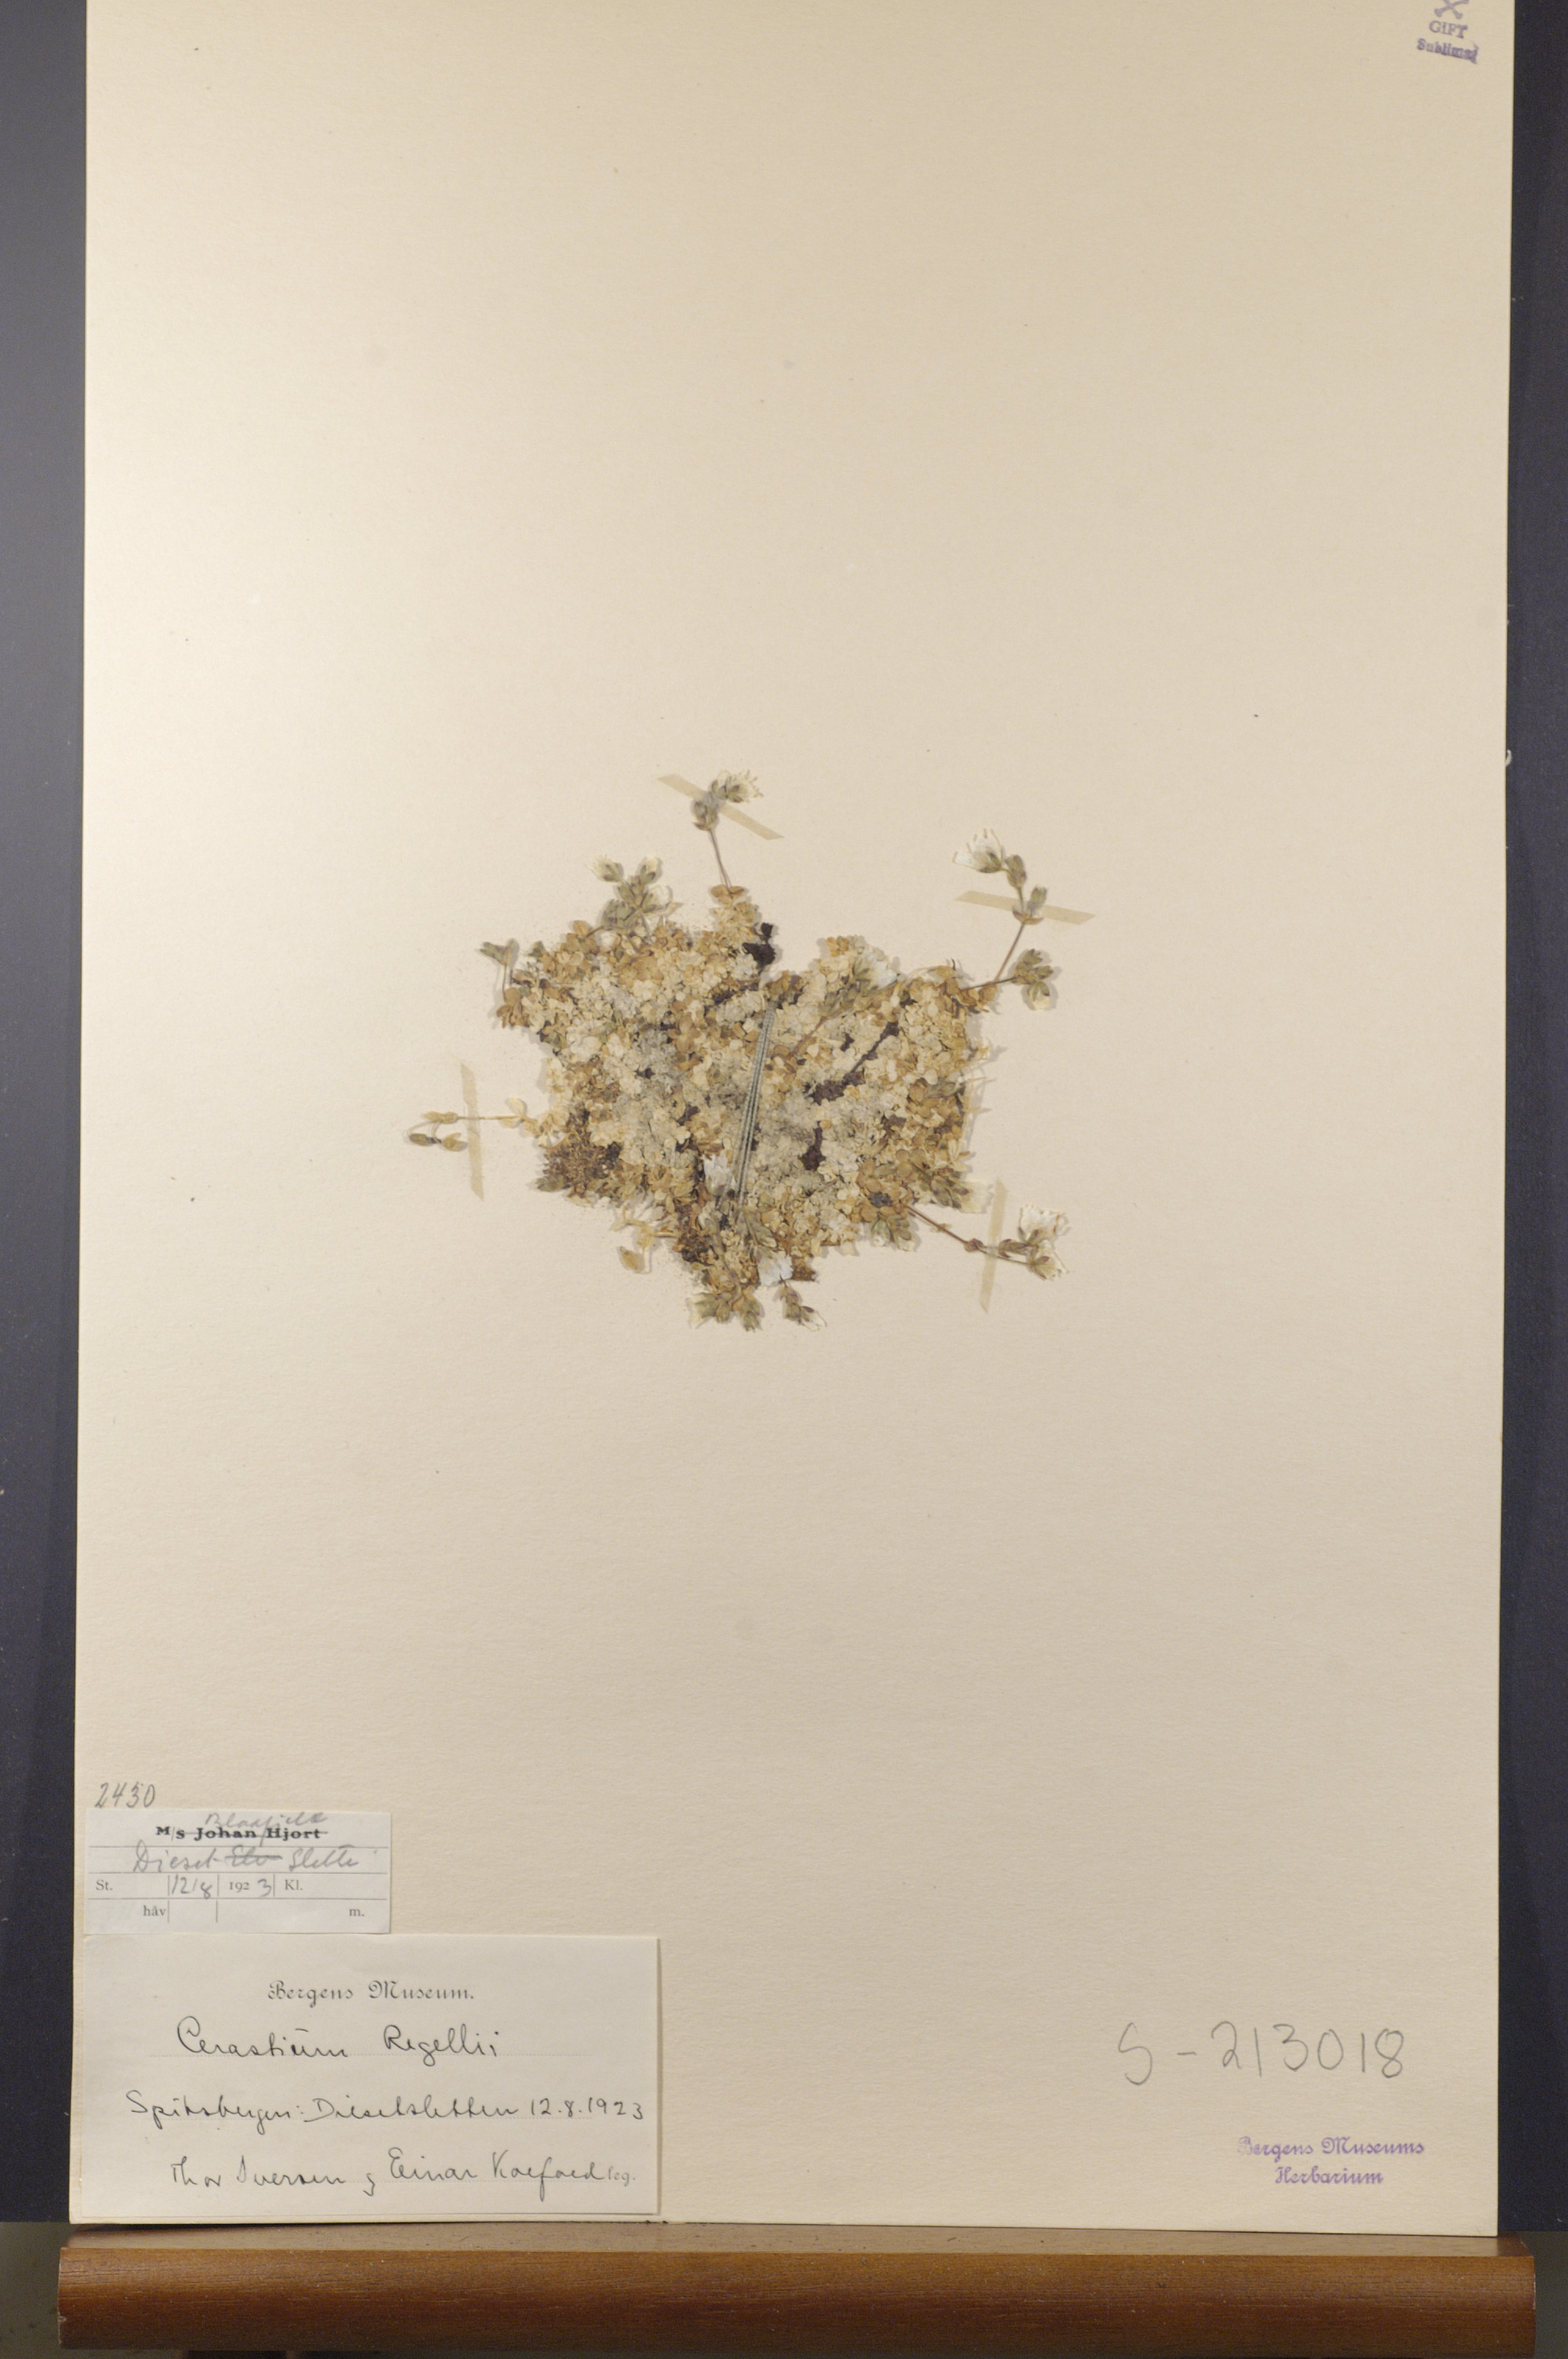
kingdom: Plantae
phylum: Tracheophyta
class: Magnoliopsida
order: Caryophyllales
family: Caryophyllaceae
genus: Cerastium
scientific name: Cerastium regelii
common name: Regel's chickweed
